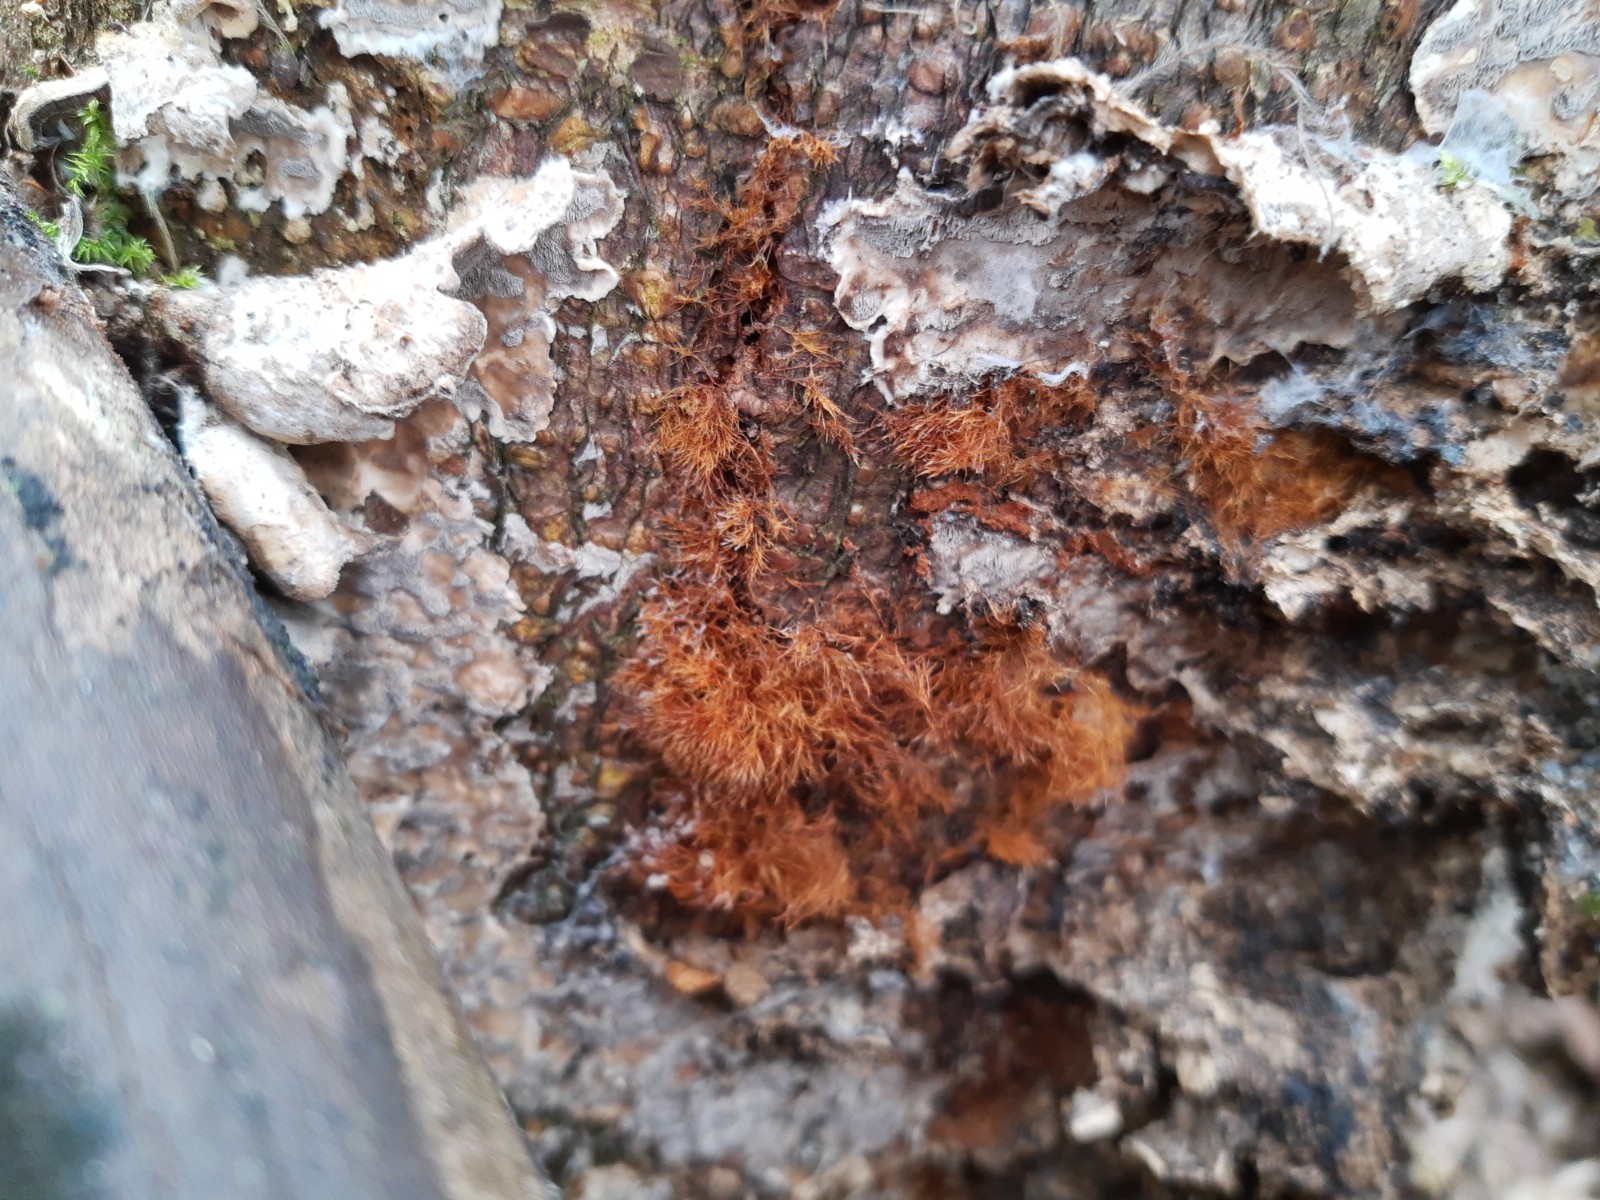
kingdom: Fungi
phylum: Basidiomycota
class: Agaricomycetes
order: Agaricales
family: Psathyrellaceae
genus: Ozonium
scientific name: Ozonium
